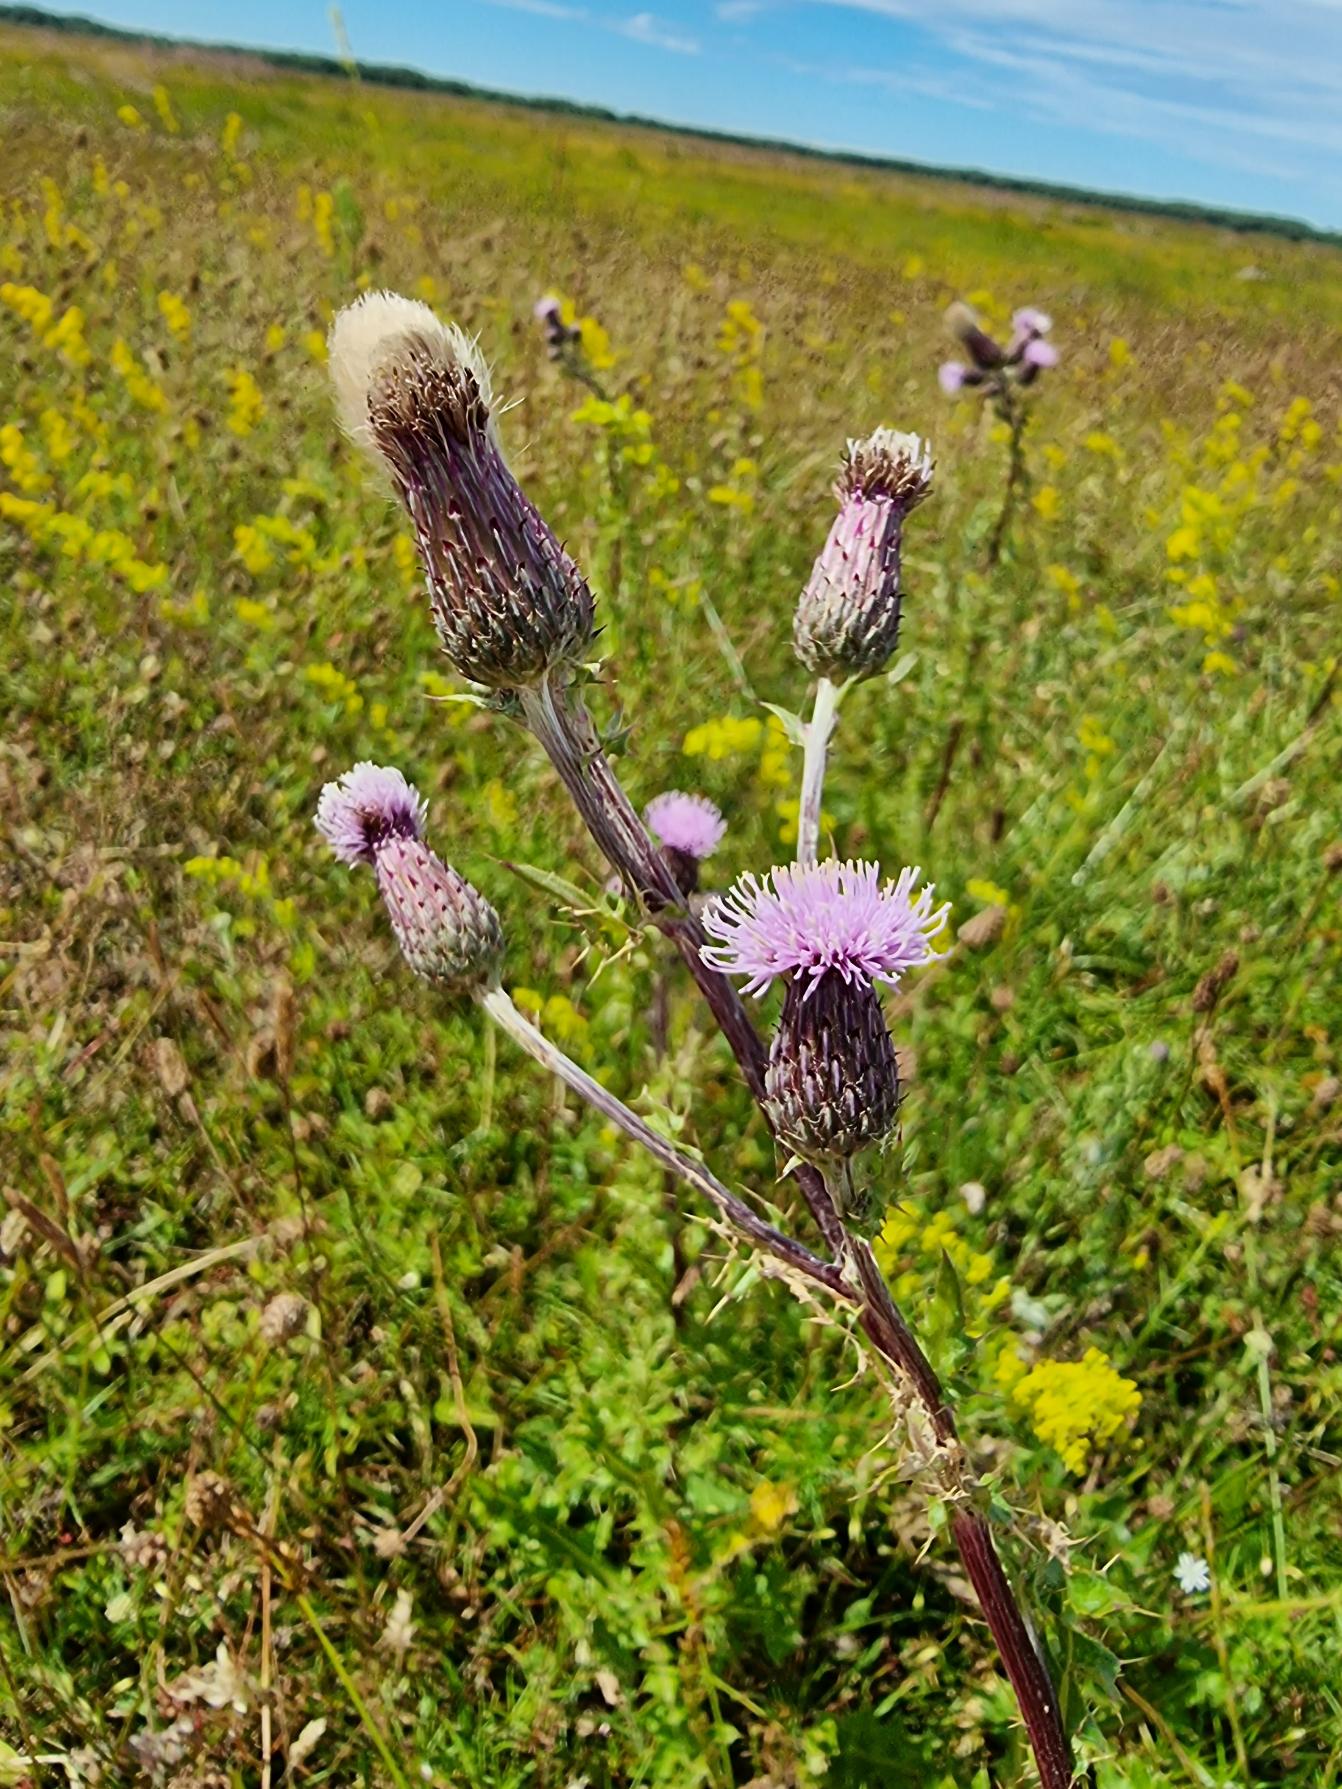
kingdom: Plantae
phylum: Tracheophyta
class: Magnoliopsida
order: Asterales
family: Asteraceae
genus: Cirsium
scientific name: Cirsium arvense
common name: Ager-tidsel
